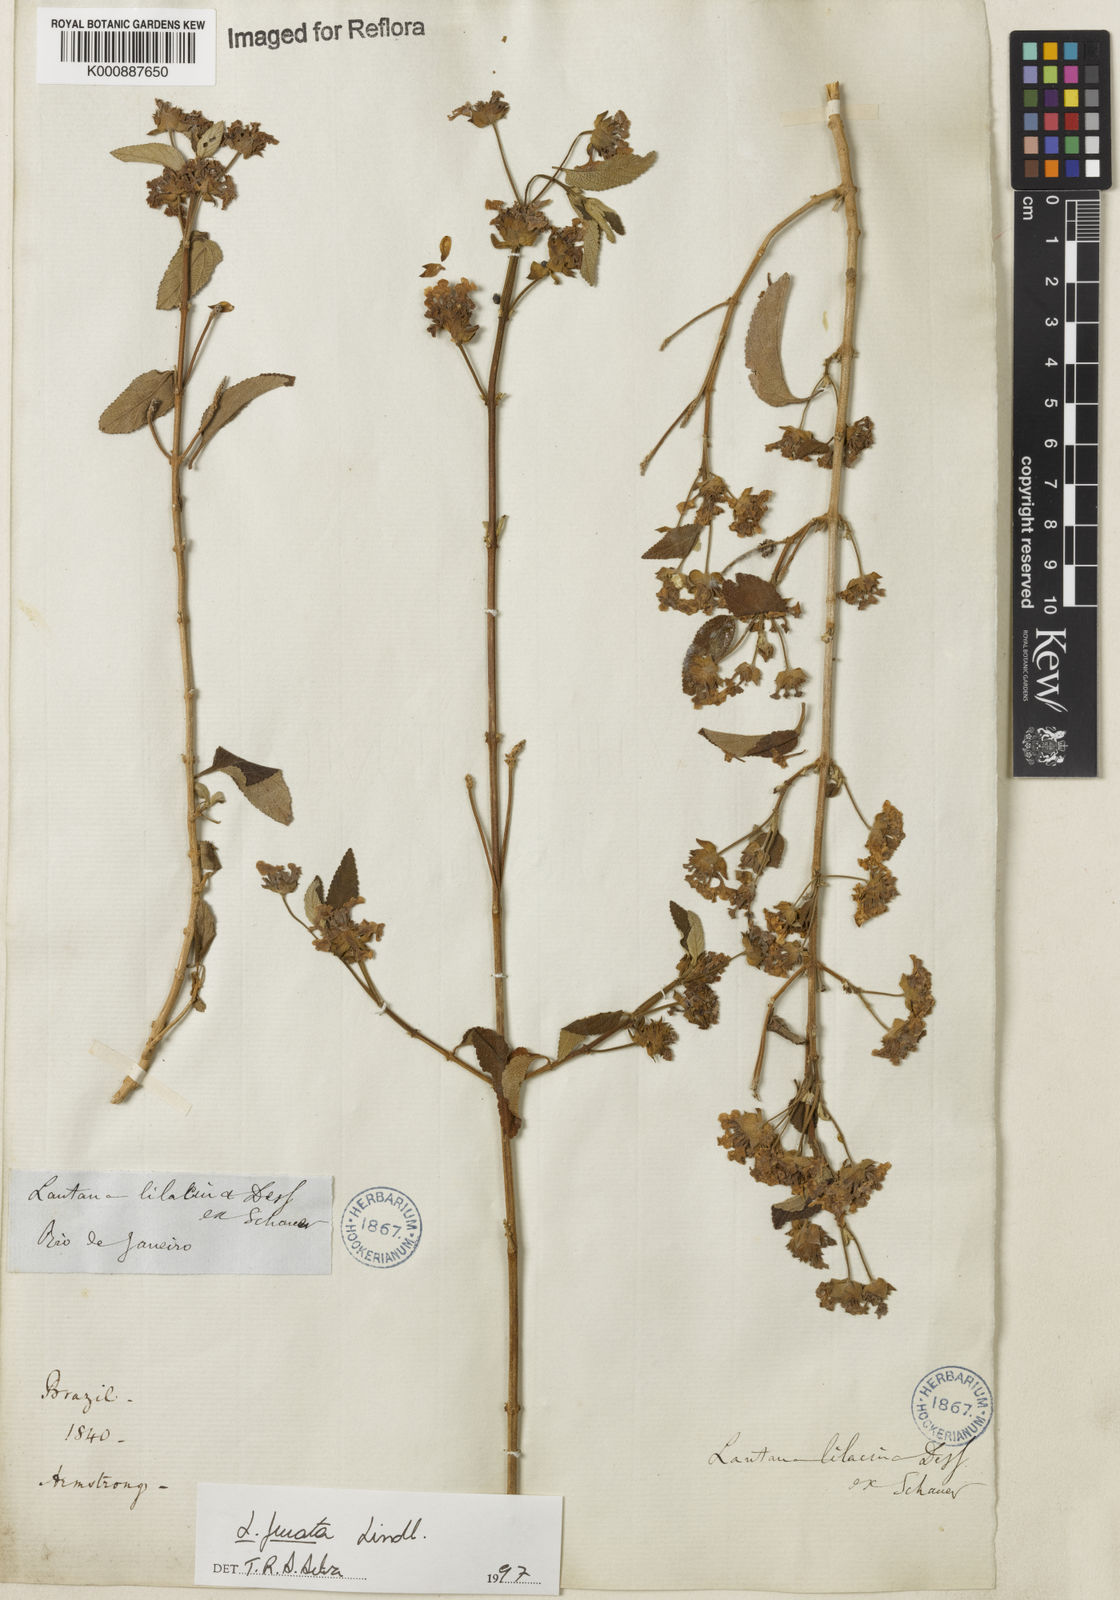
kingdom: Plantae
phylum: Tracheophyta
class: Magnoliopsida
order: Lamiales
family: Verbenaceae
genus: Lantana
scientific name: Lantana fucata
